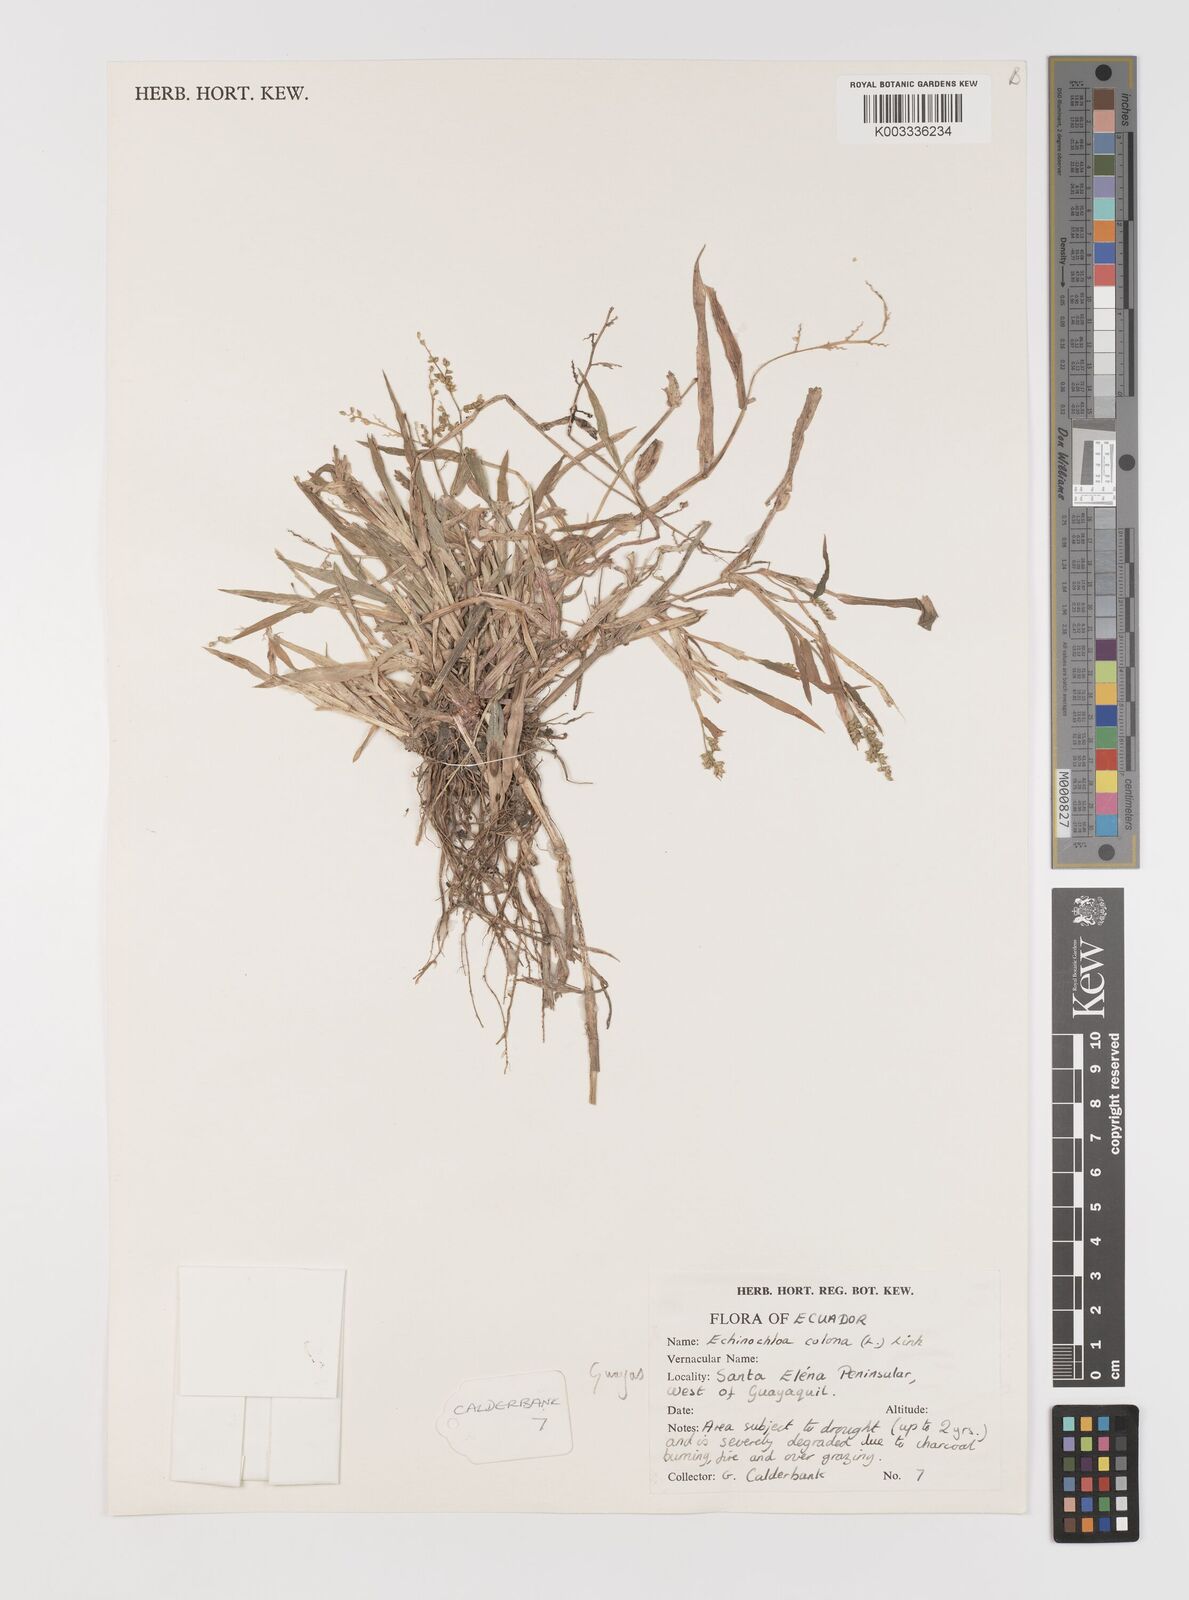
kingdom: Plantae
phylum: Tracheophyta
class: Liliopsida
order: Poales
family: Poaceae
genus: Echinochloa
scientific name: Echinochloa colonum
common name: Jungle rice
